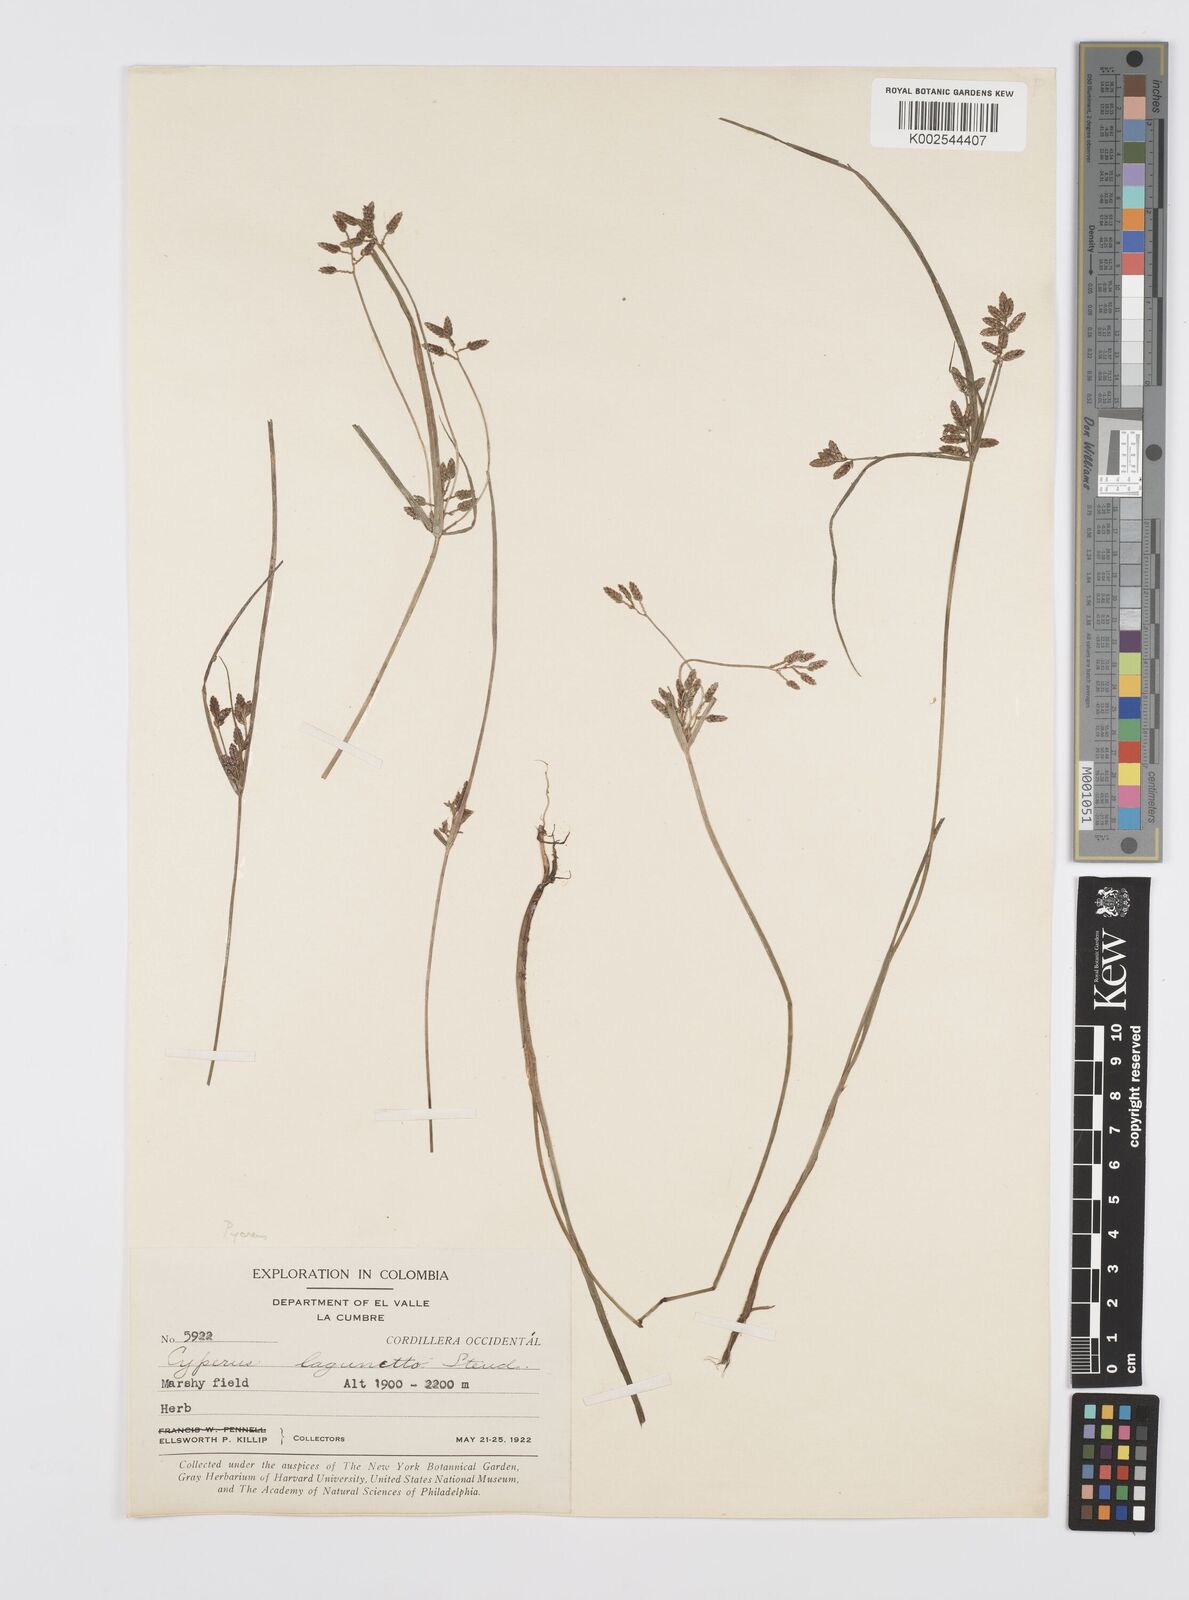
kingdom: Plantae
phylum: Tracheophyta
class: Liliopsida
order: Poales
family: Cyperaceae
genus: Cyperus
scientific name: Cyperus bipartitus
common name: Brook flatsedge
